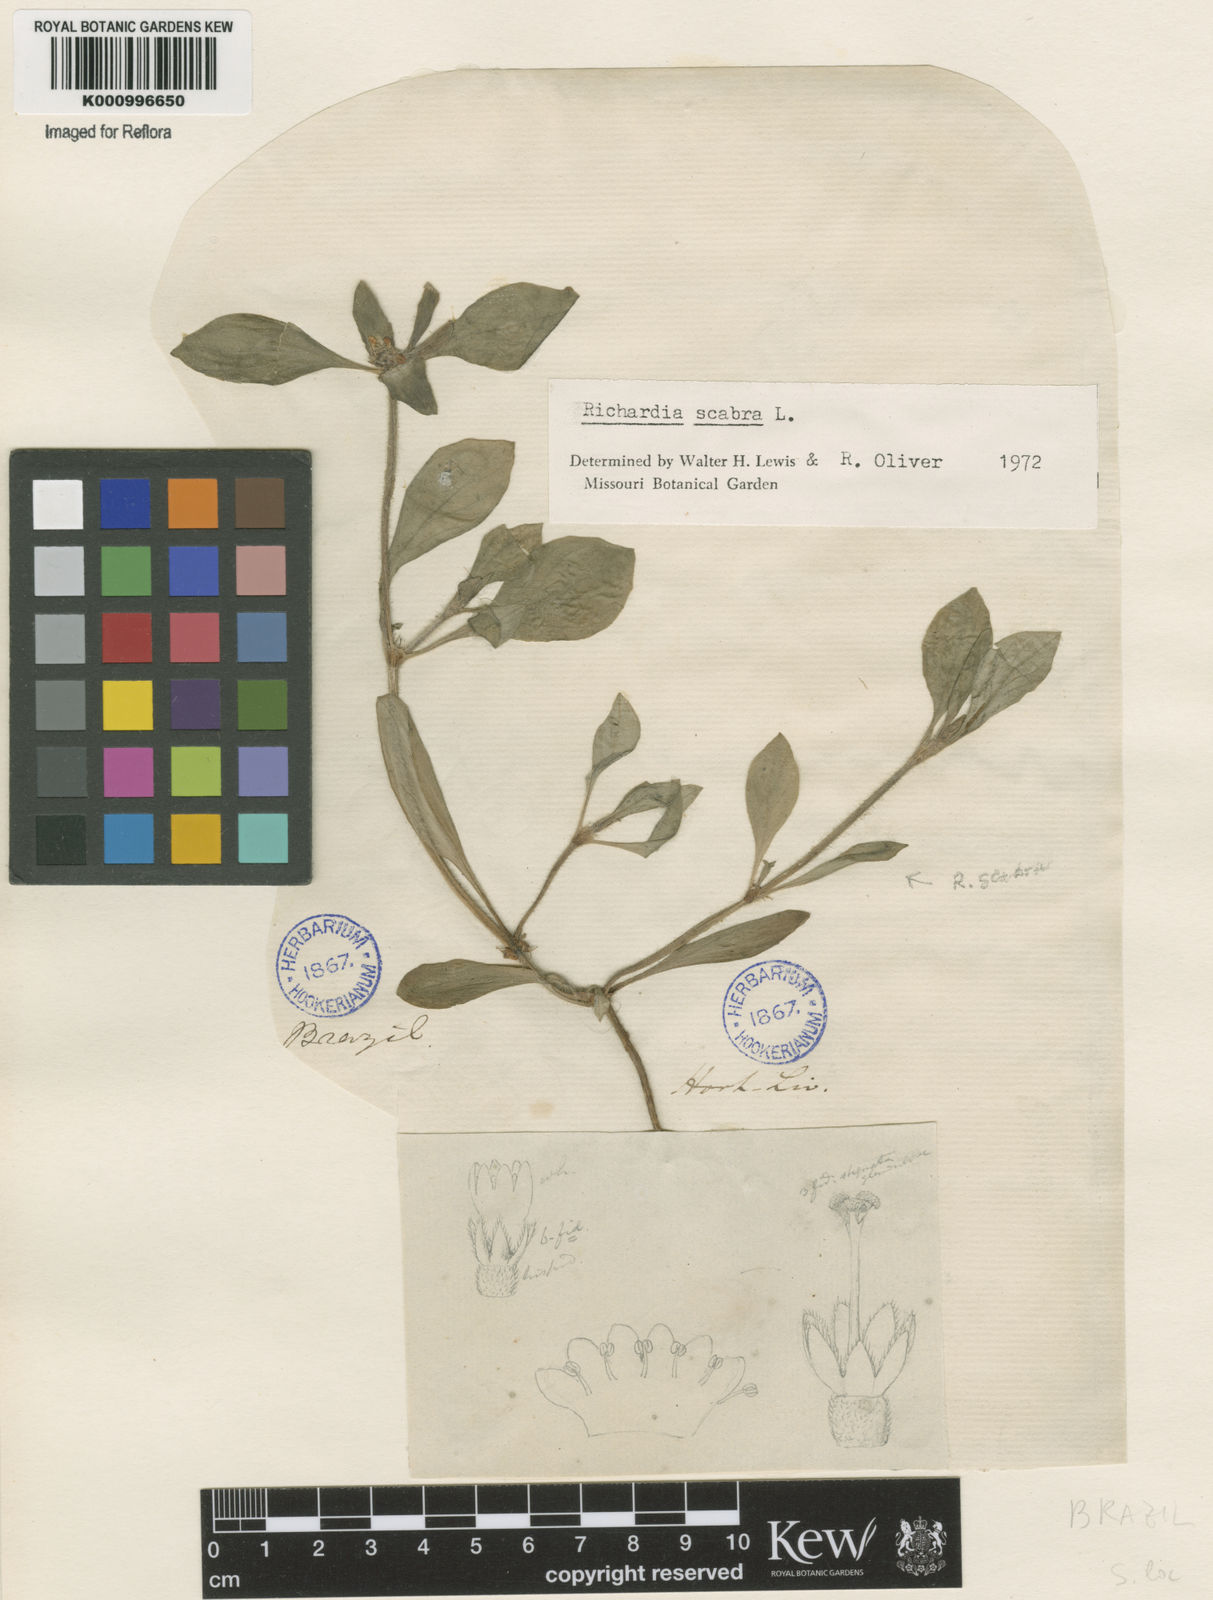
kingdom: Plantae
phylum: Tracheophyta
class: Magnoliopsida
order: Gentianales
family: Rubiaceae
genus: Richardia
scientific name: Richardia scabra
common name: Rough mexican clover
